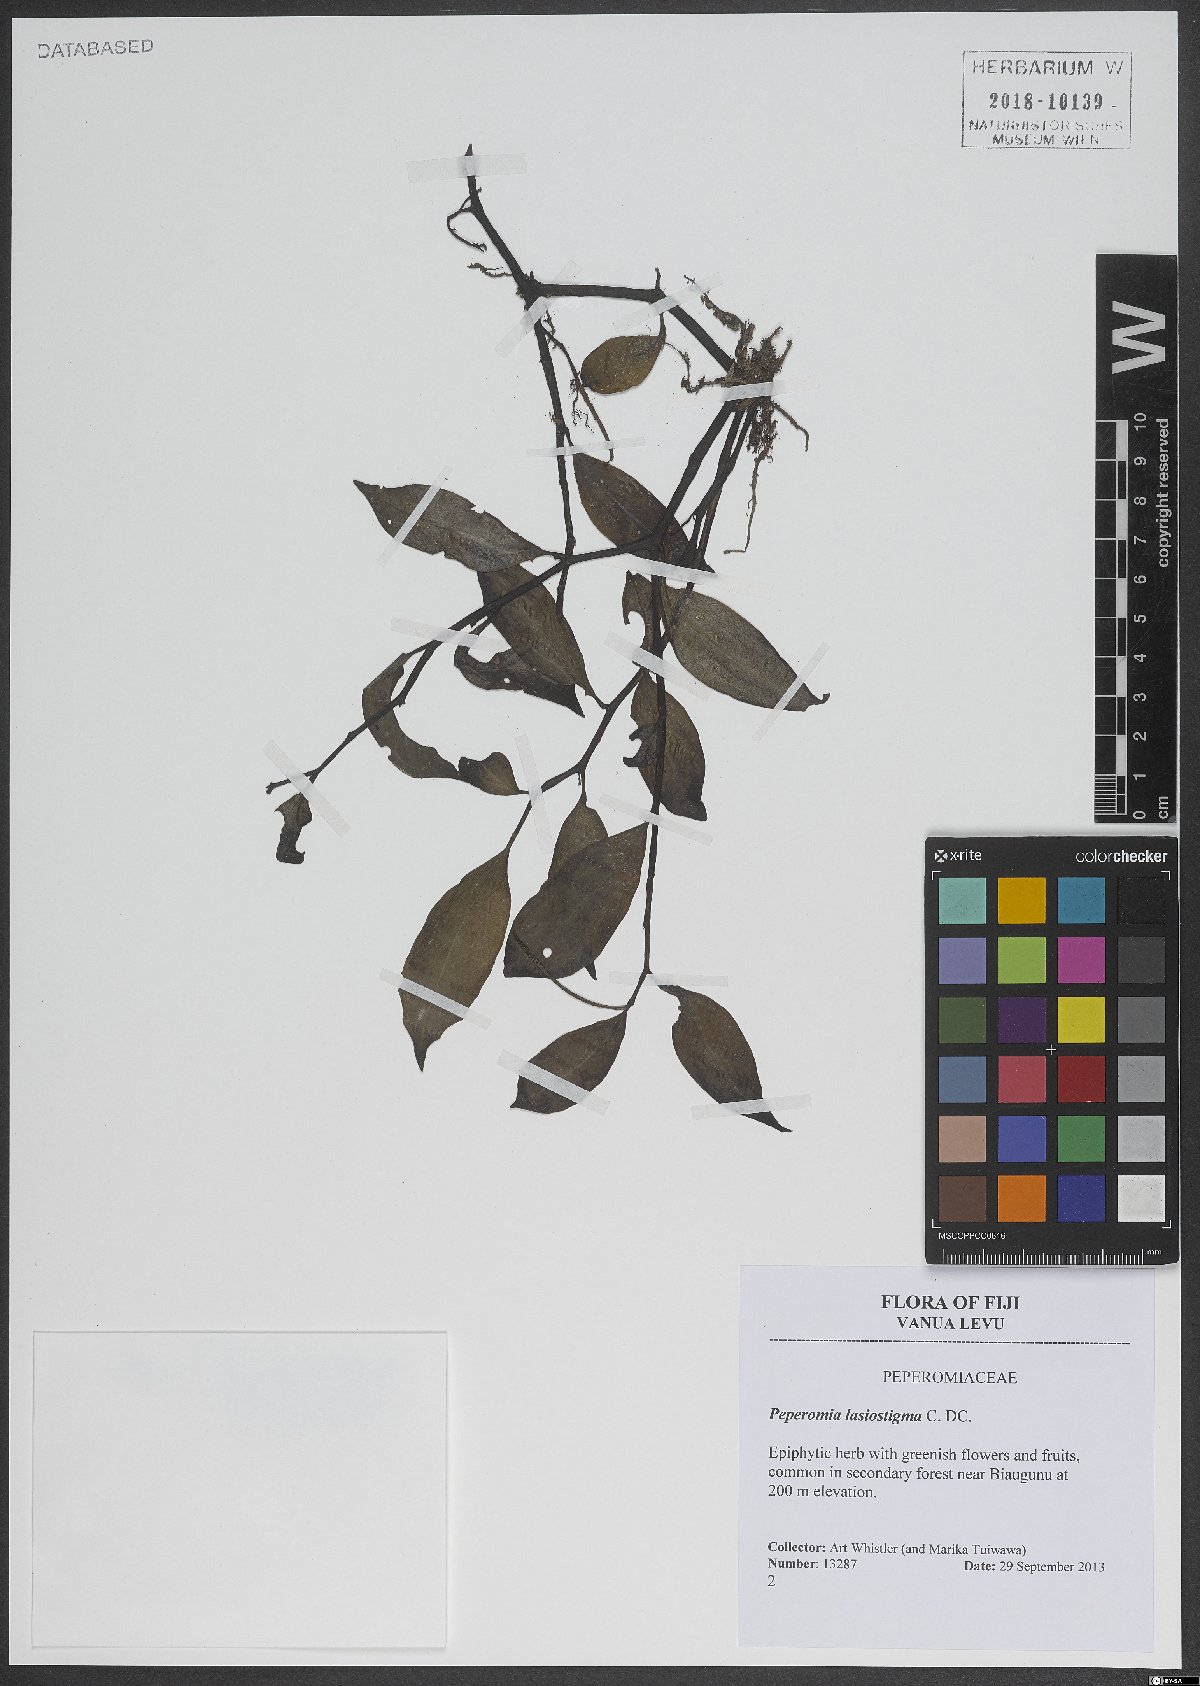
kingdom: Plantae
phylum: Tracheophyta
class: Magnoliopsida
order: Piperales
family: Piperaceae
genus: Peperomia
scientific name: Peperomia lasiostigma
